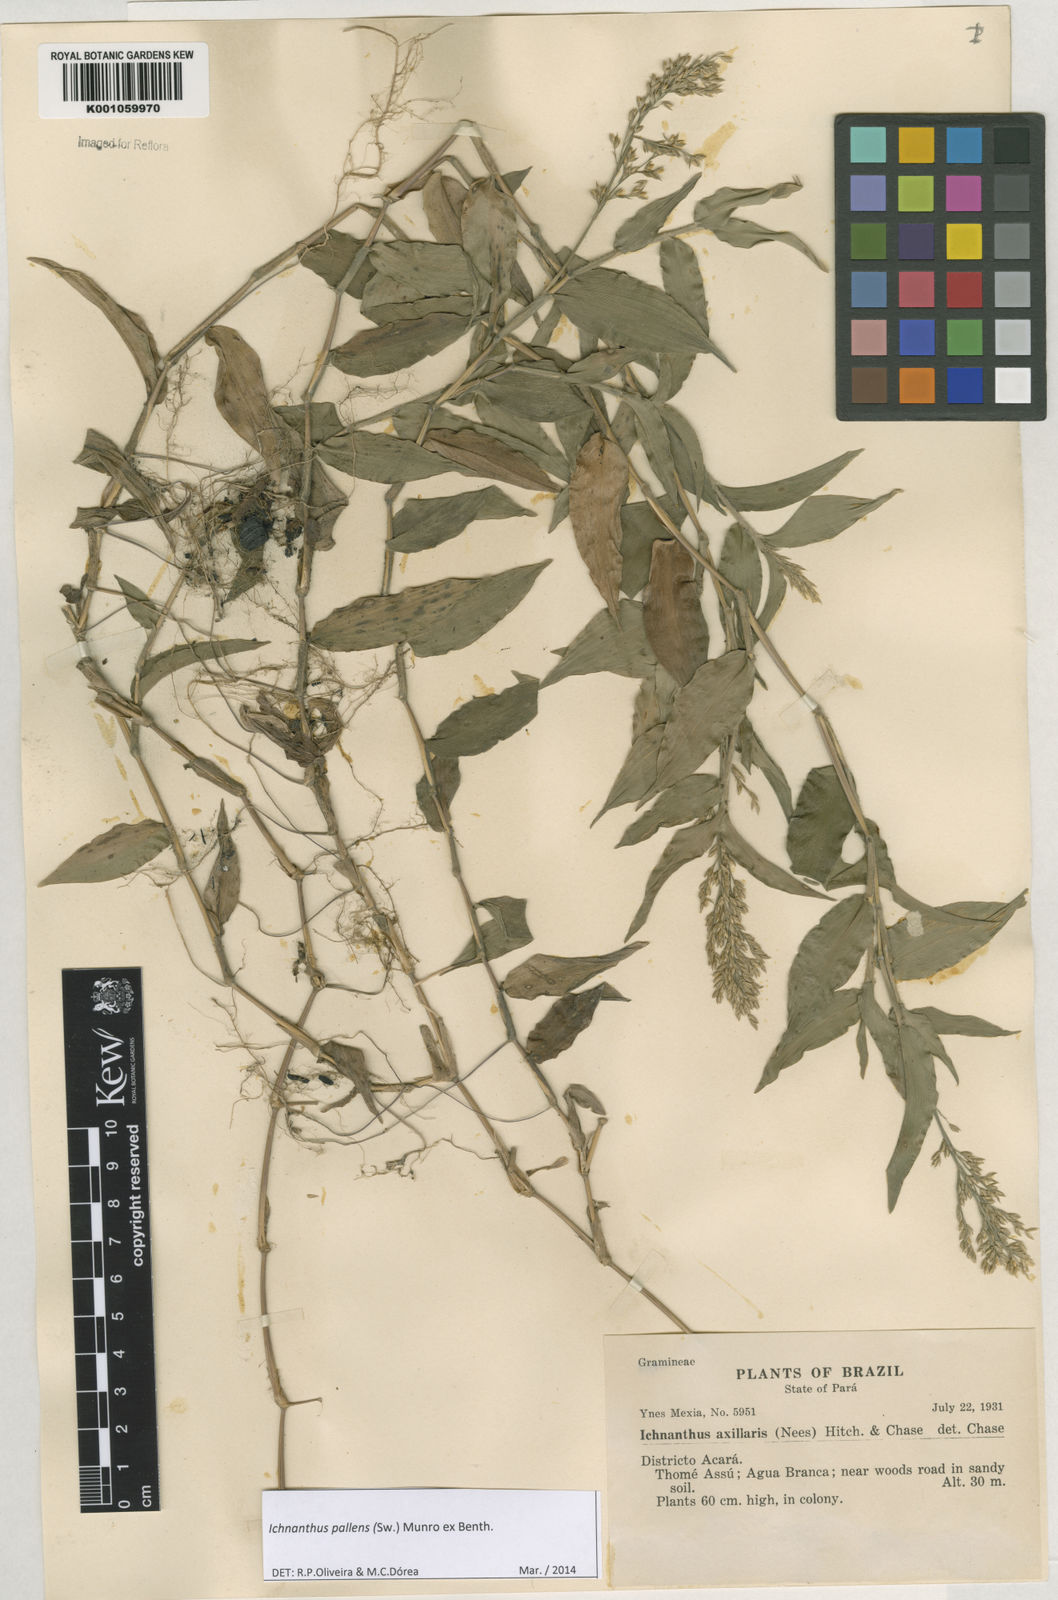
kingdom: Plantae
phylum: Tracheophyta
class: Liliopsida
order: Poales
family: Poaceae
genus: Ichnanthus
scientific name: Ichnanthus pallens
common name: Water grass
